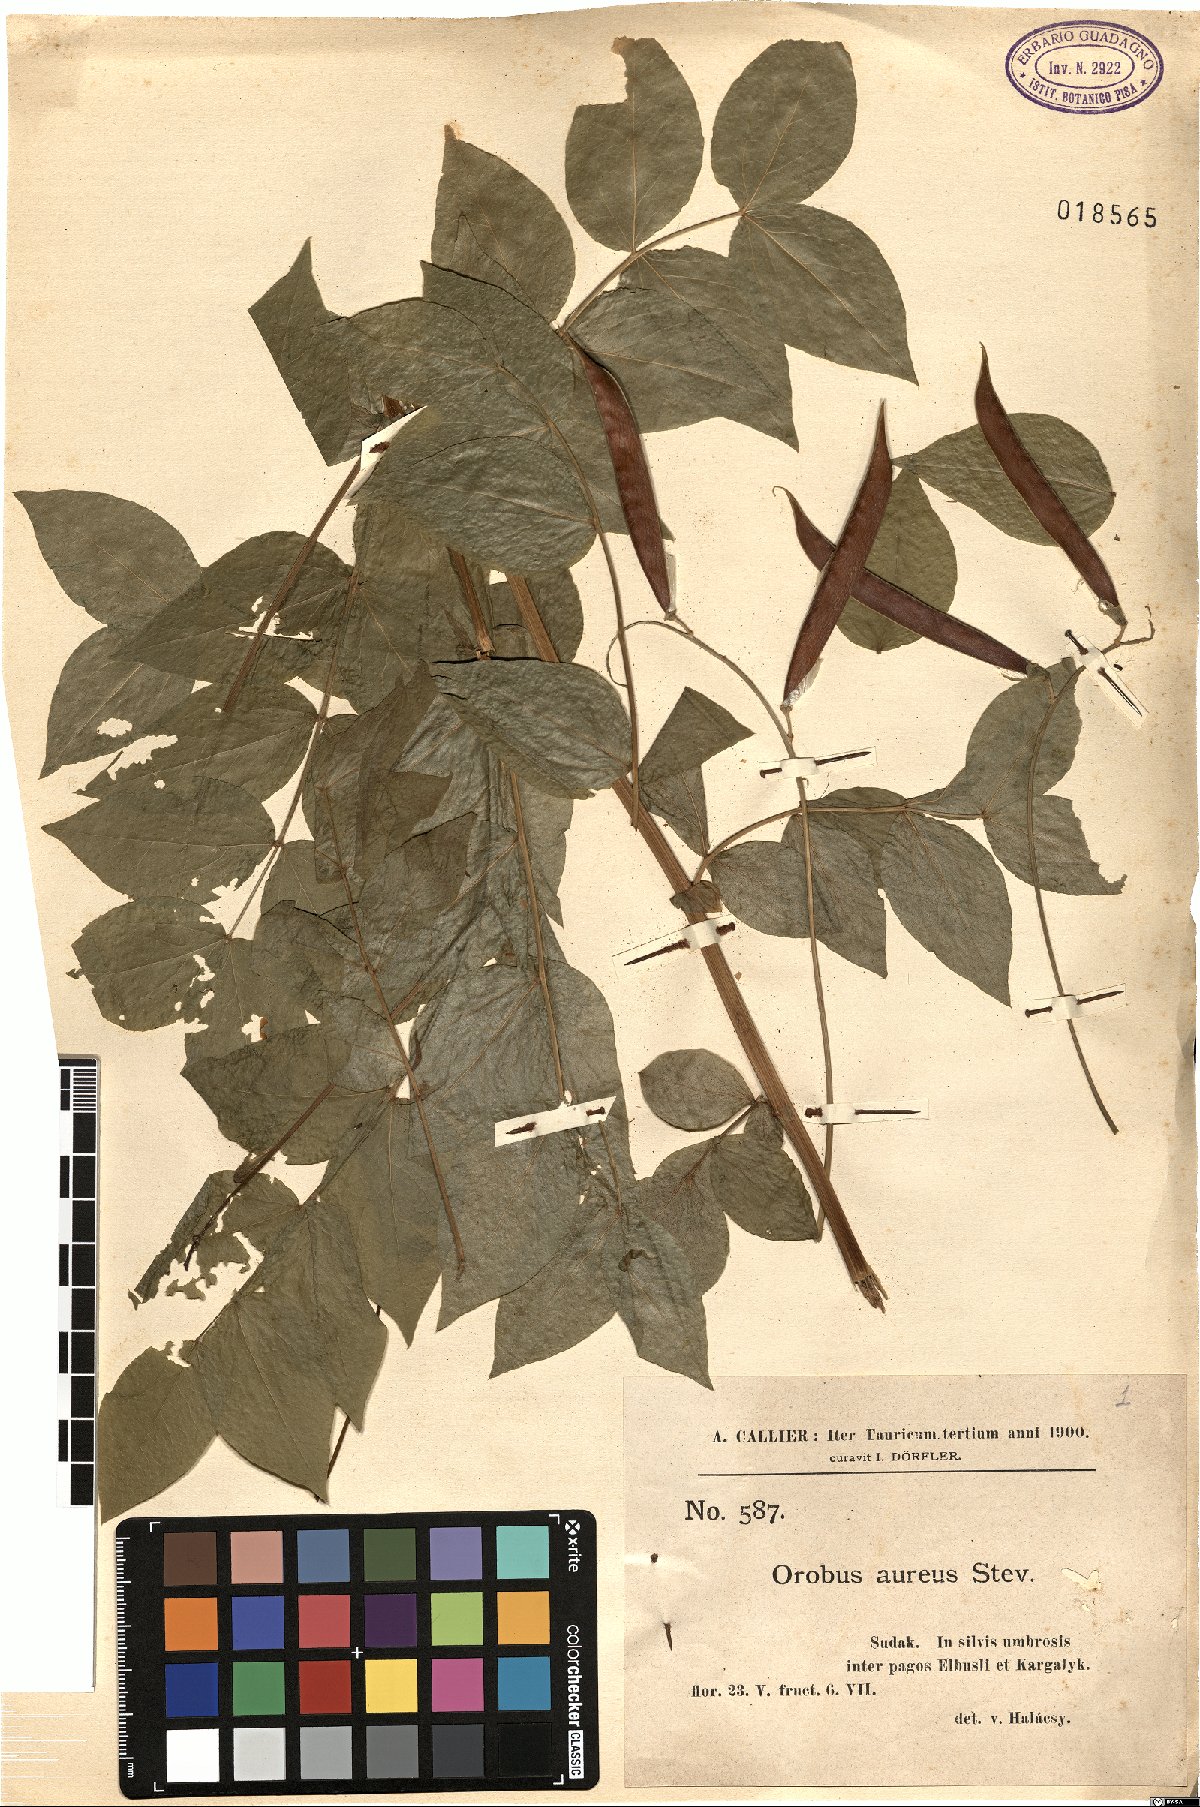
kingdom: Plantae
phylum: Tracheophyta
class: Magnoliopsida
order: Fabales
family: Fabaceae
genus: Lathyrus
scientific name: Lathyrus aureus
